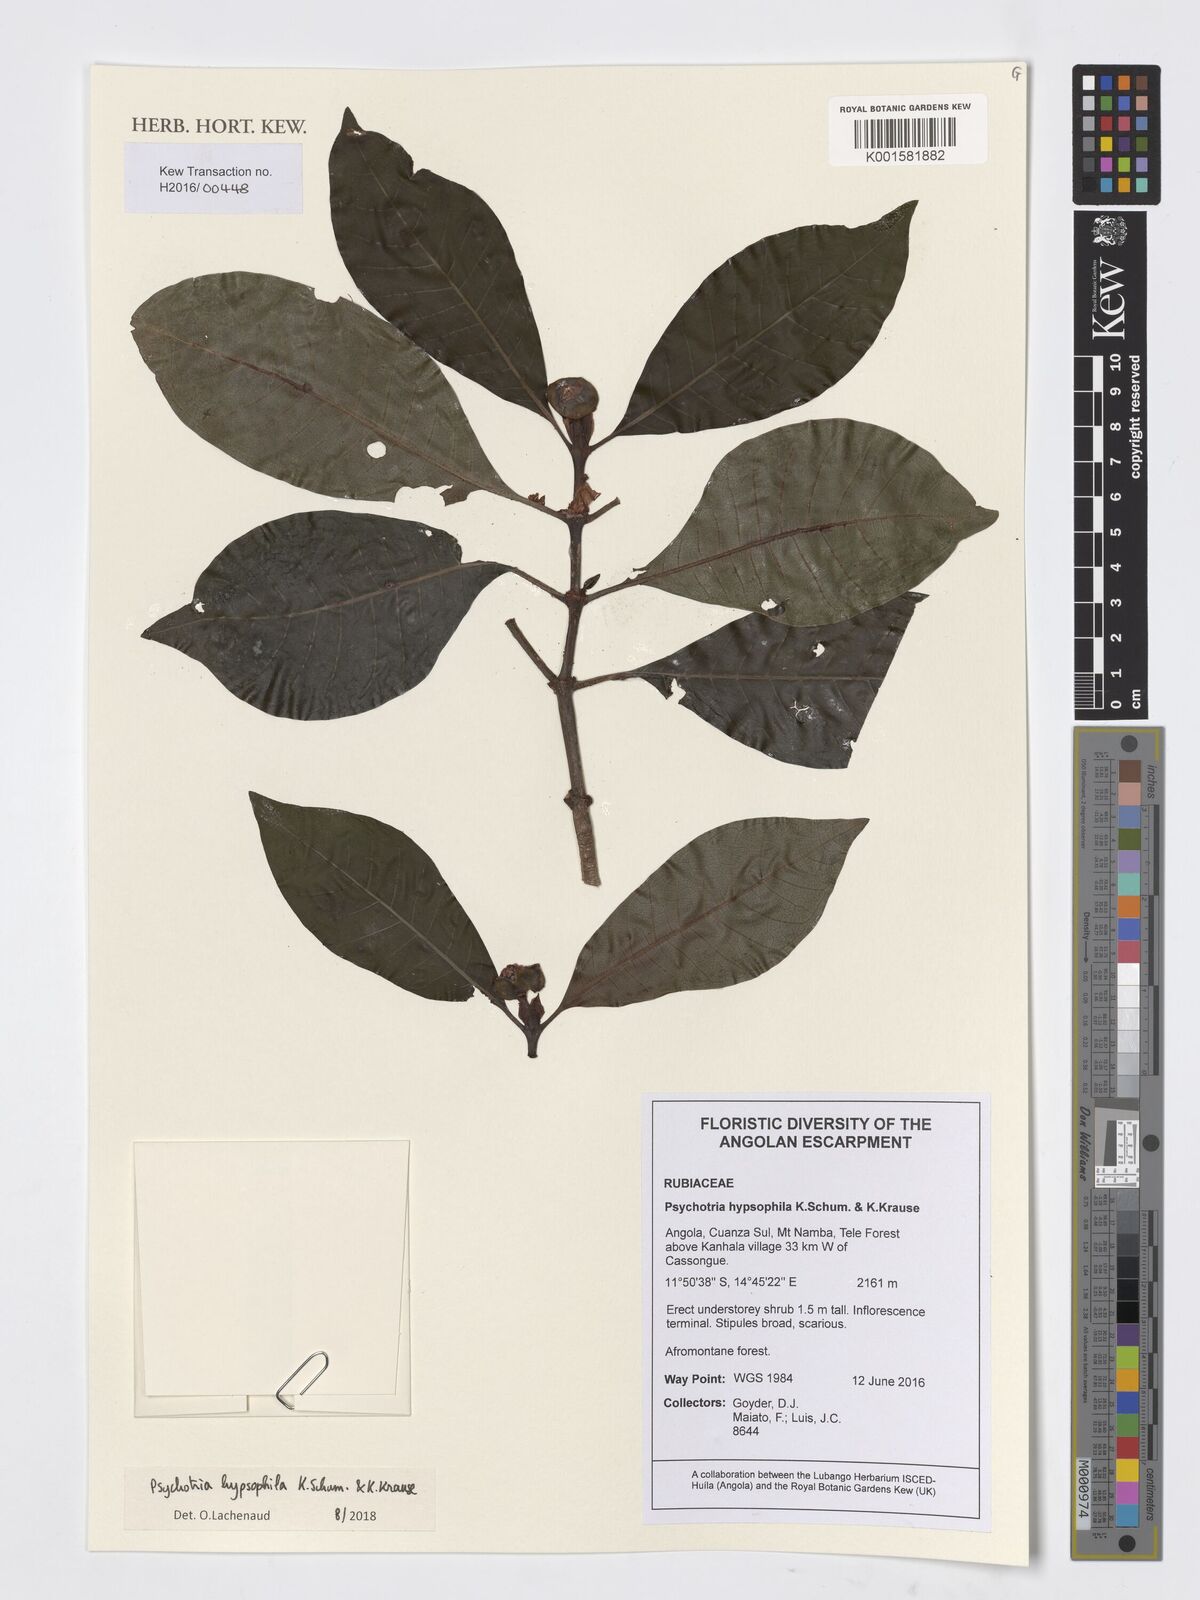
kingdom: Plantae
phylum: Tracheophyta
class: Magnoliopsida
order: Gentianales
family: Rubiaceae
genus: Psychotria
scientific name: Psychotria peduncularis
